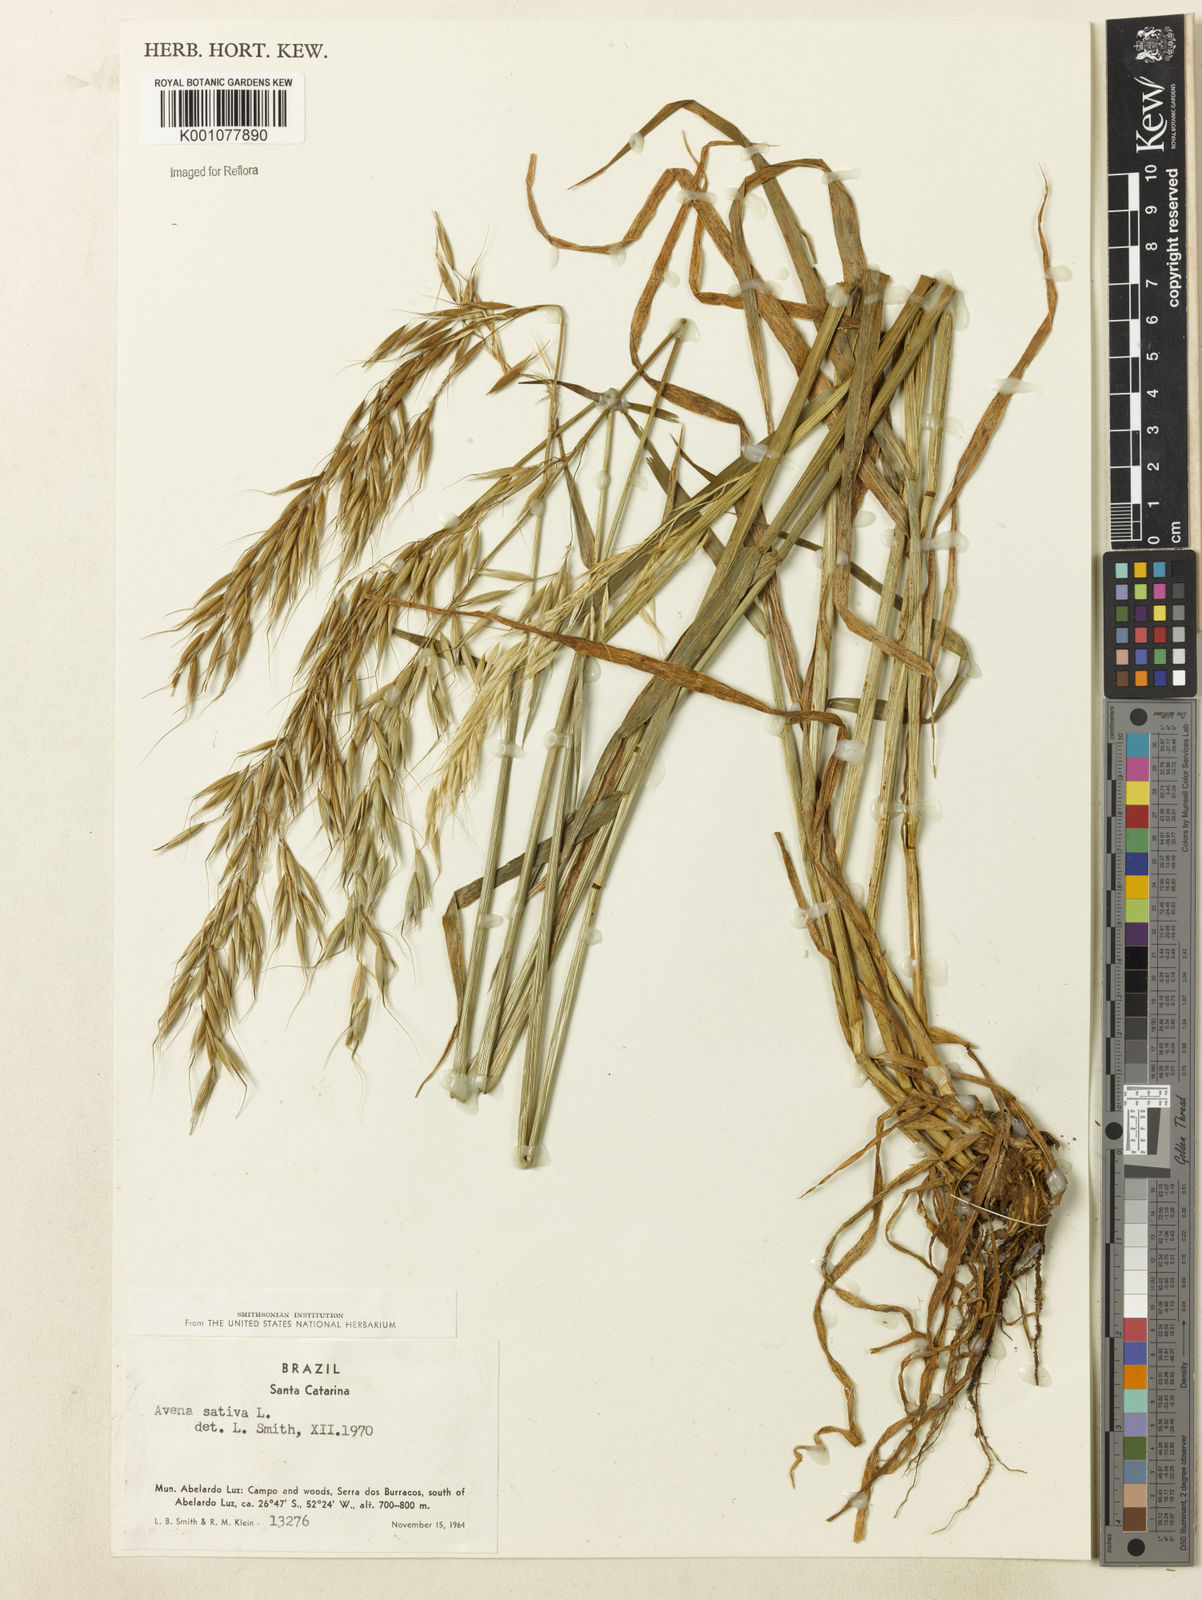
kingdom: Plantae
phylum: Tracheophyta
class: Liliopsida
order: Poales
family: Poaceae
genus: Avena
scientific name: Avena sativa
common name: Oat
